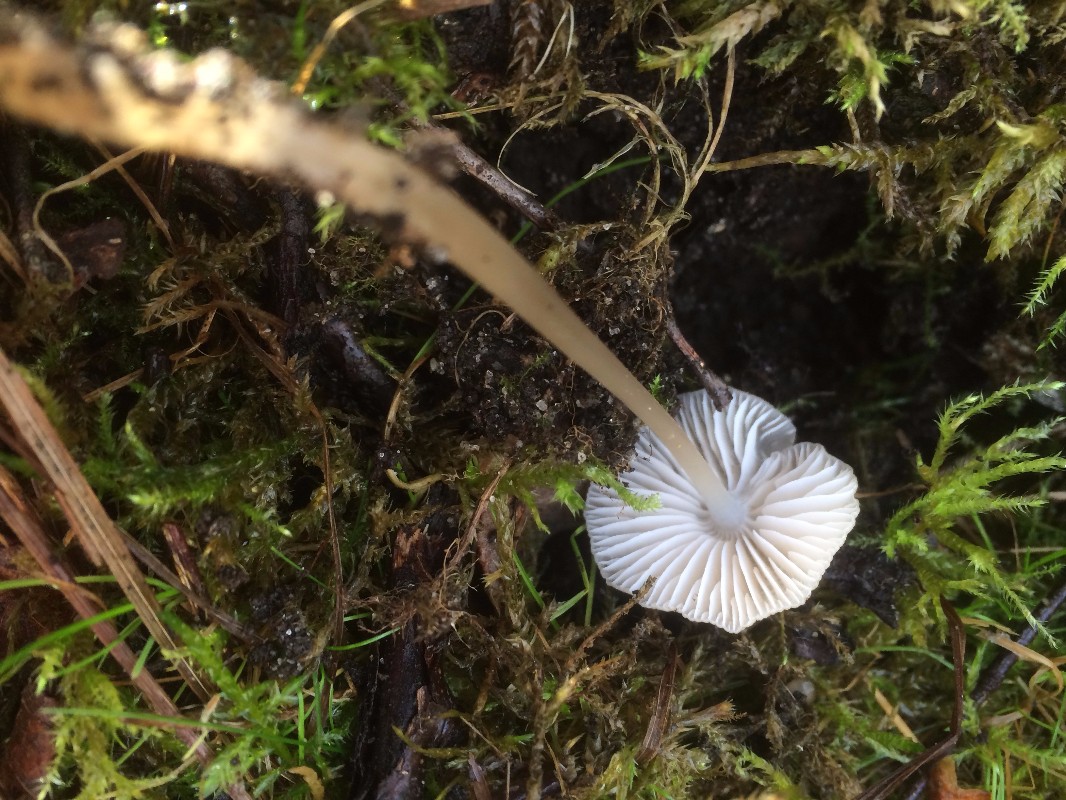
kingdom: Fungi
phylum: Basidiomycota
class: Agaricomycetes
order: Agaricales
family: Mycenaceae
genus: Mycena
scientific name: Mycena galericulata
